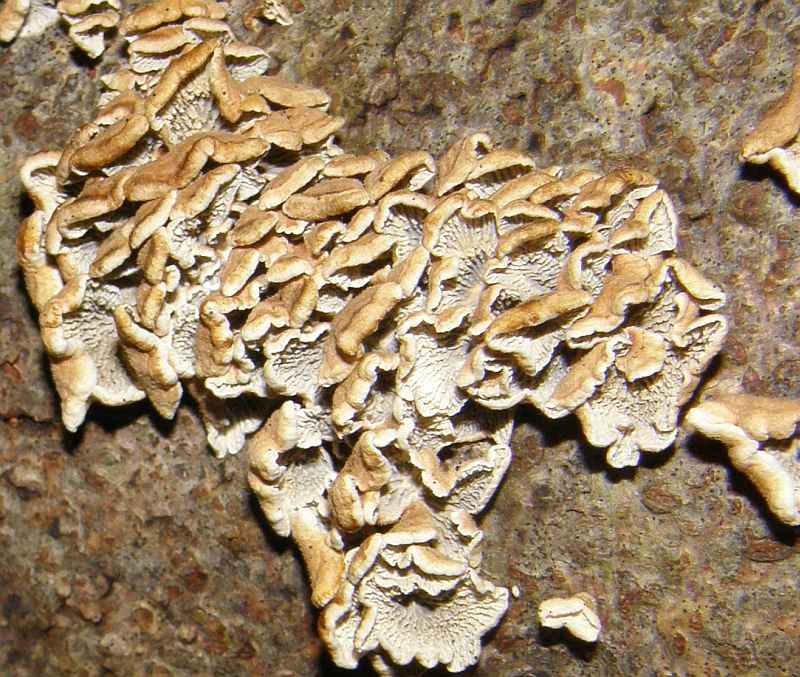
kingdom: Fungi
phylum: Basidiomycota
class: Agaricomycetes
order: Amylocorticiales
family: Amylocorticiaceae
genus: Plicaturopsis
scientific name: Plicaturopsis crispa
